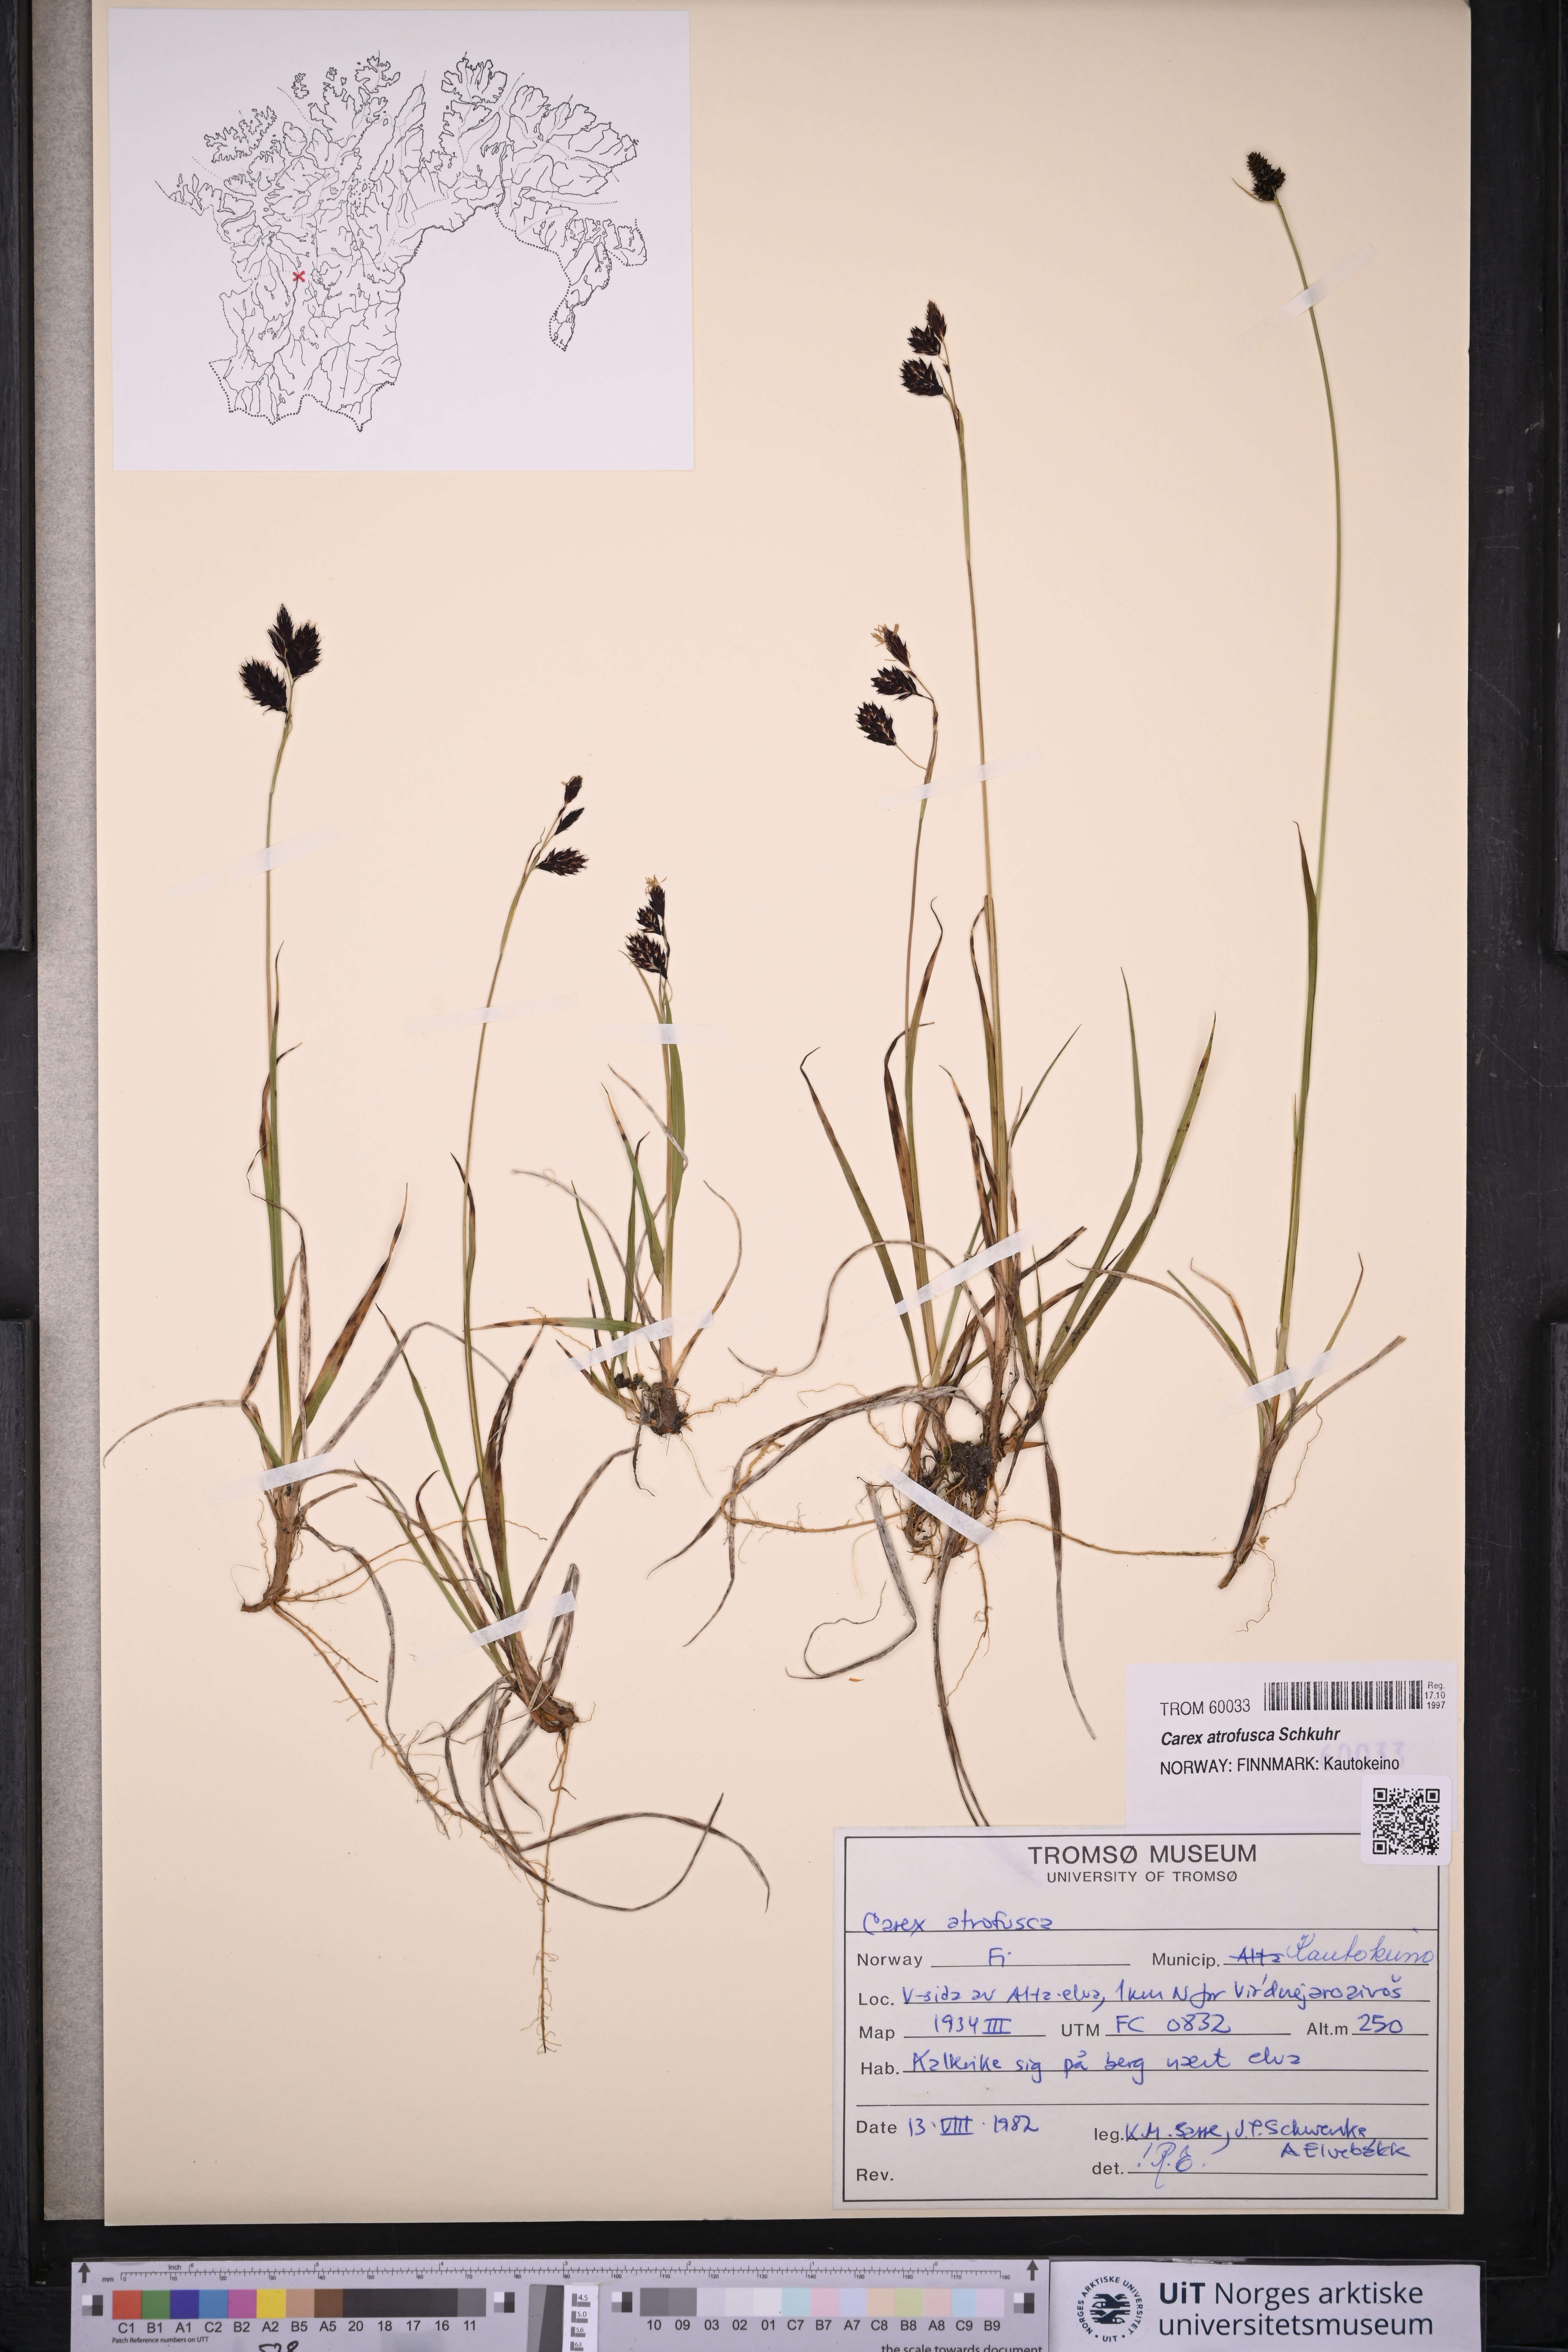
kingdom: Plantae
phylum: Tracheophyta
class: Liliopsida
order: Poales
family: Cyperaceae
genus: Carex
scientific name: Carex atrofusca
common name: Scorched alpine-sedge
